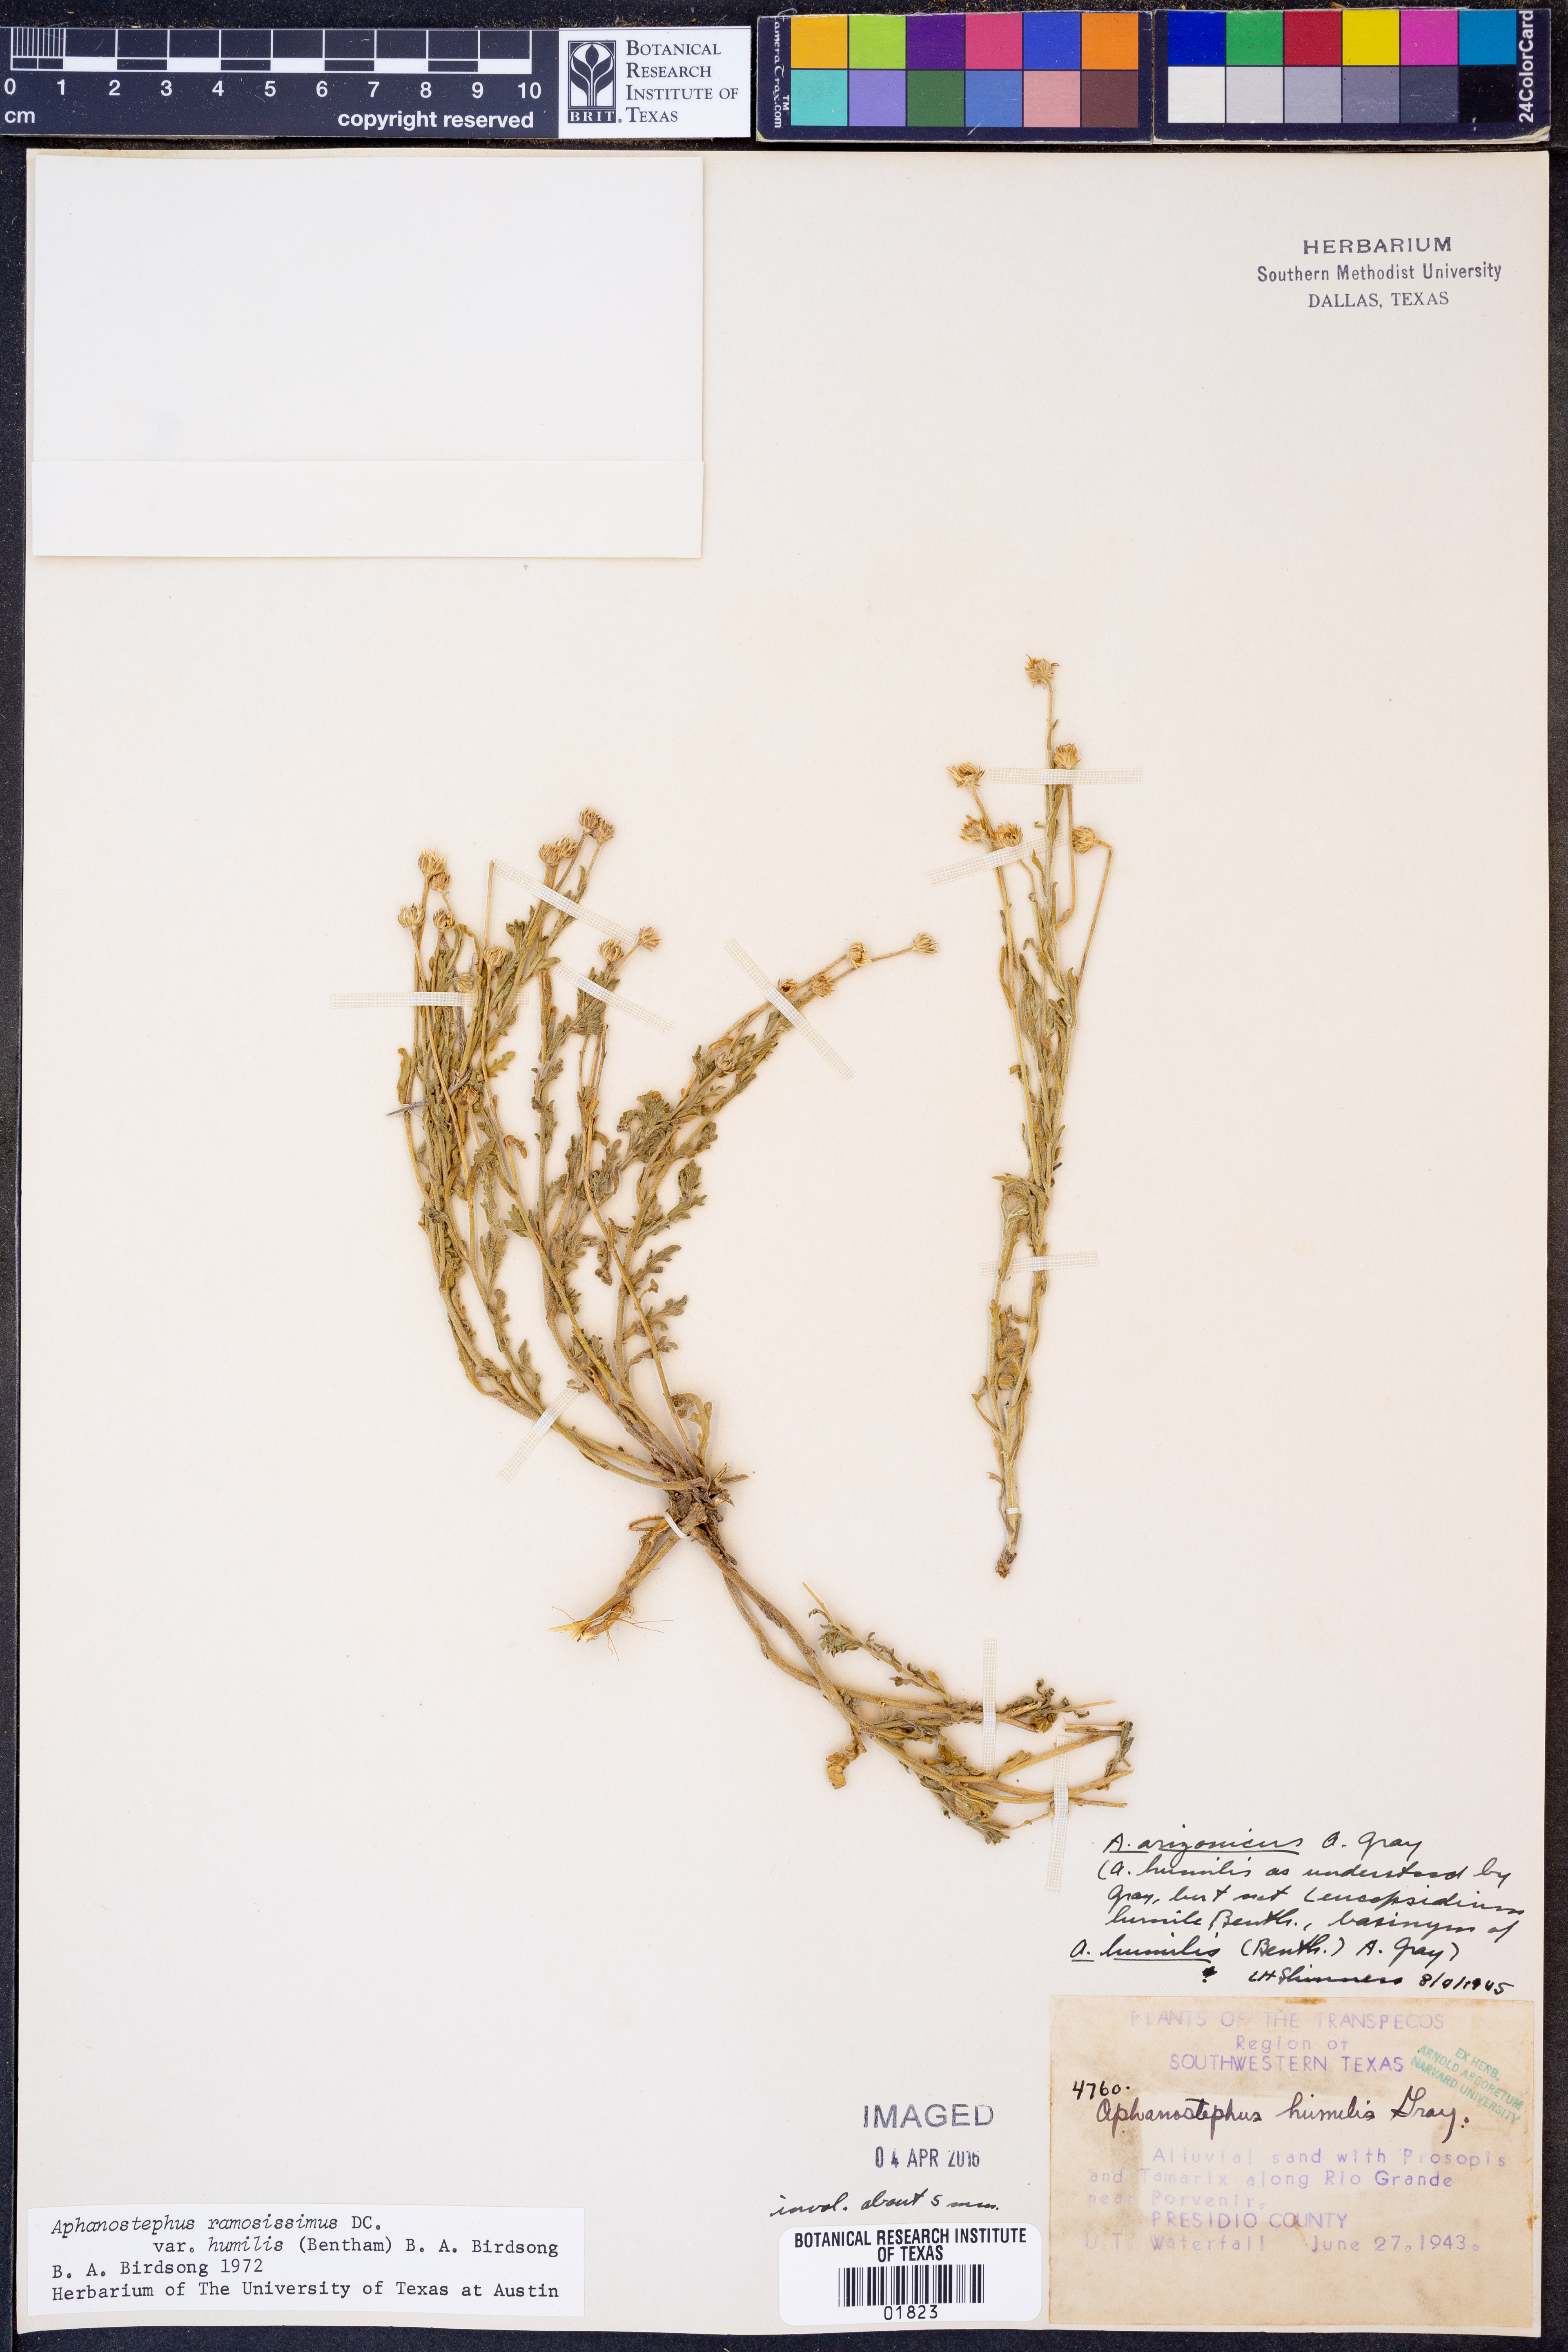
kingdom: Plantae
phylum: Tracheophyta
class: Magnoliopsida
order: Asterales
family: Asteraceae
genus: Aphanostephus
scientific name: Aphanostephus ramosissimus
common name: Plains lazy daisy
